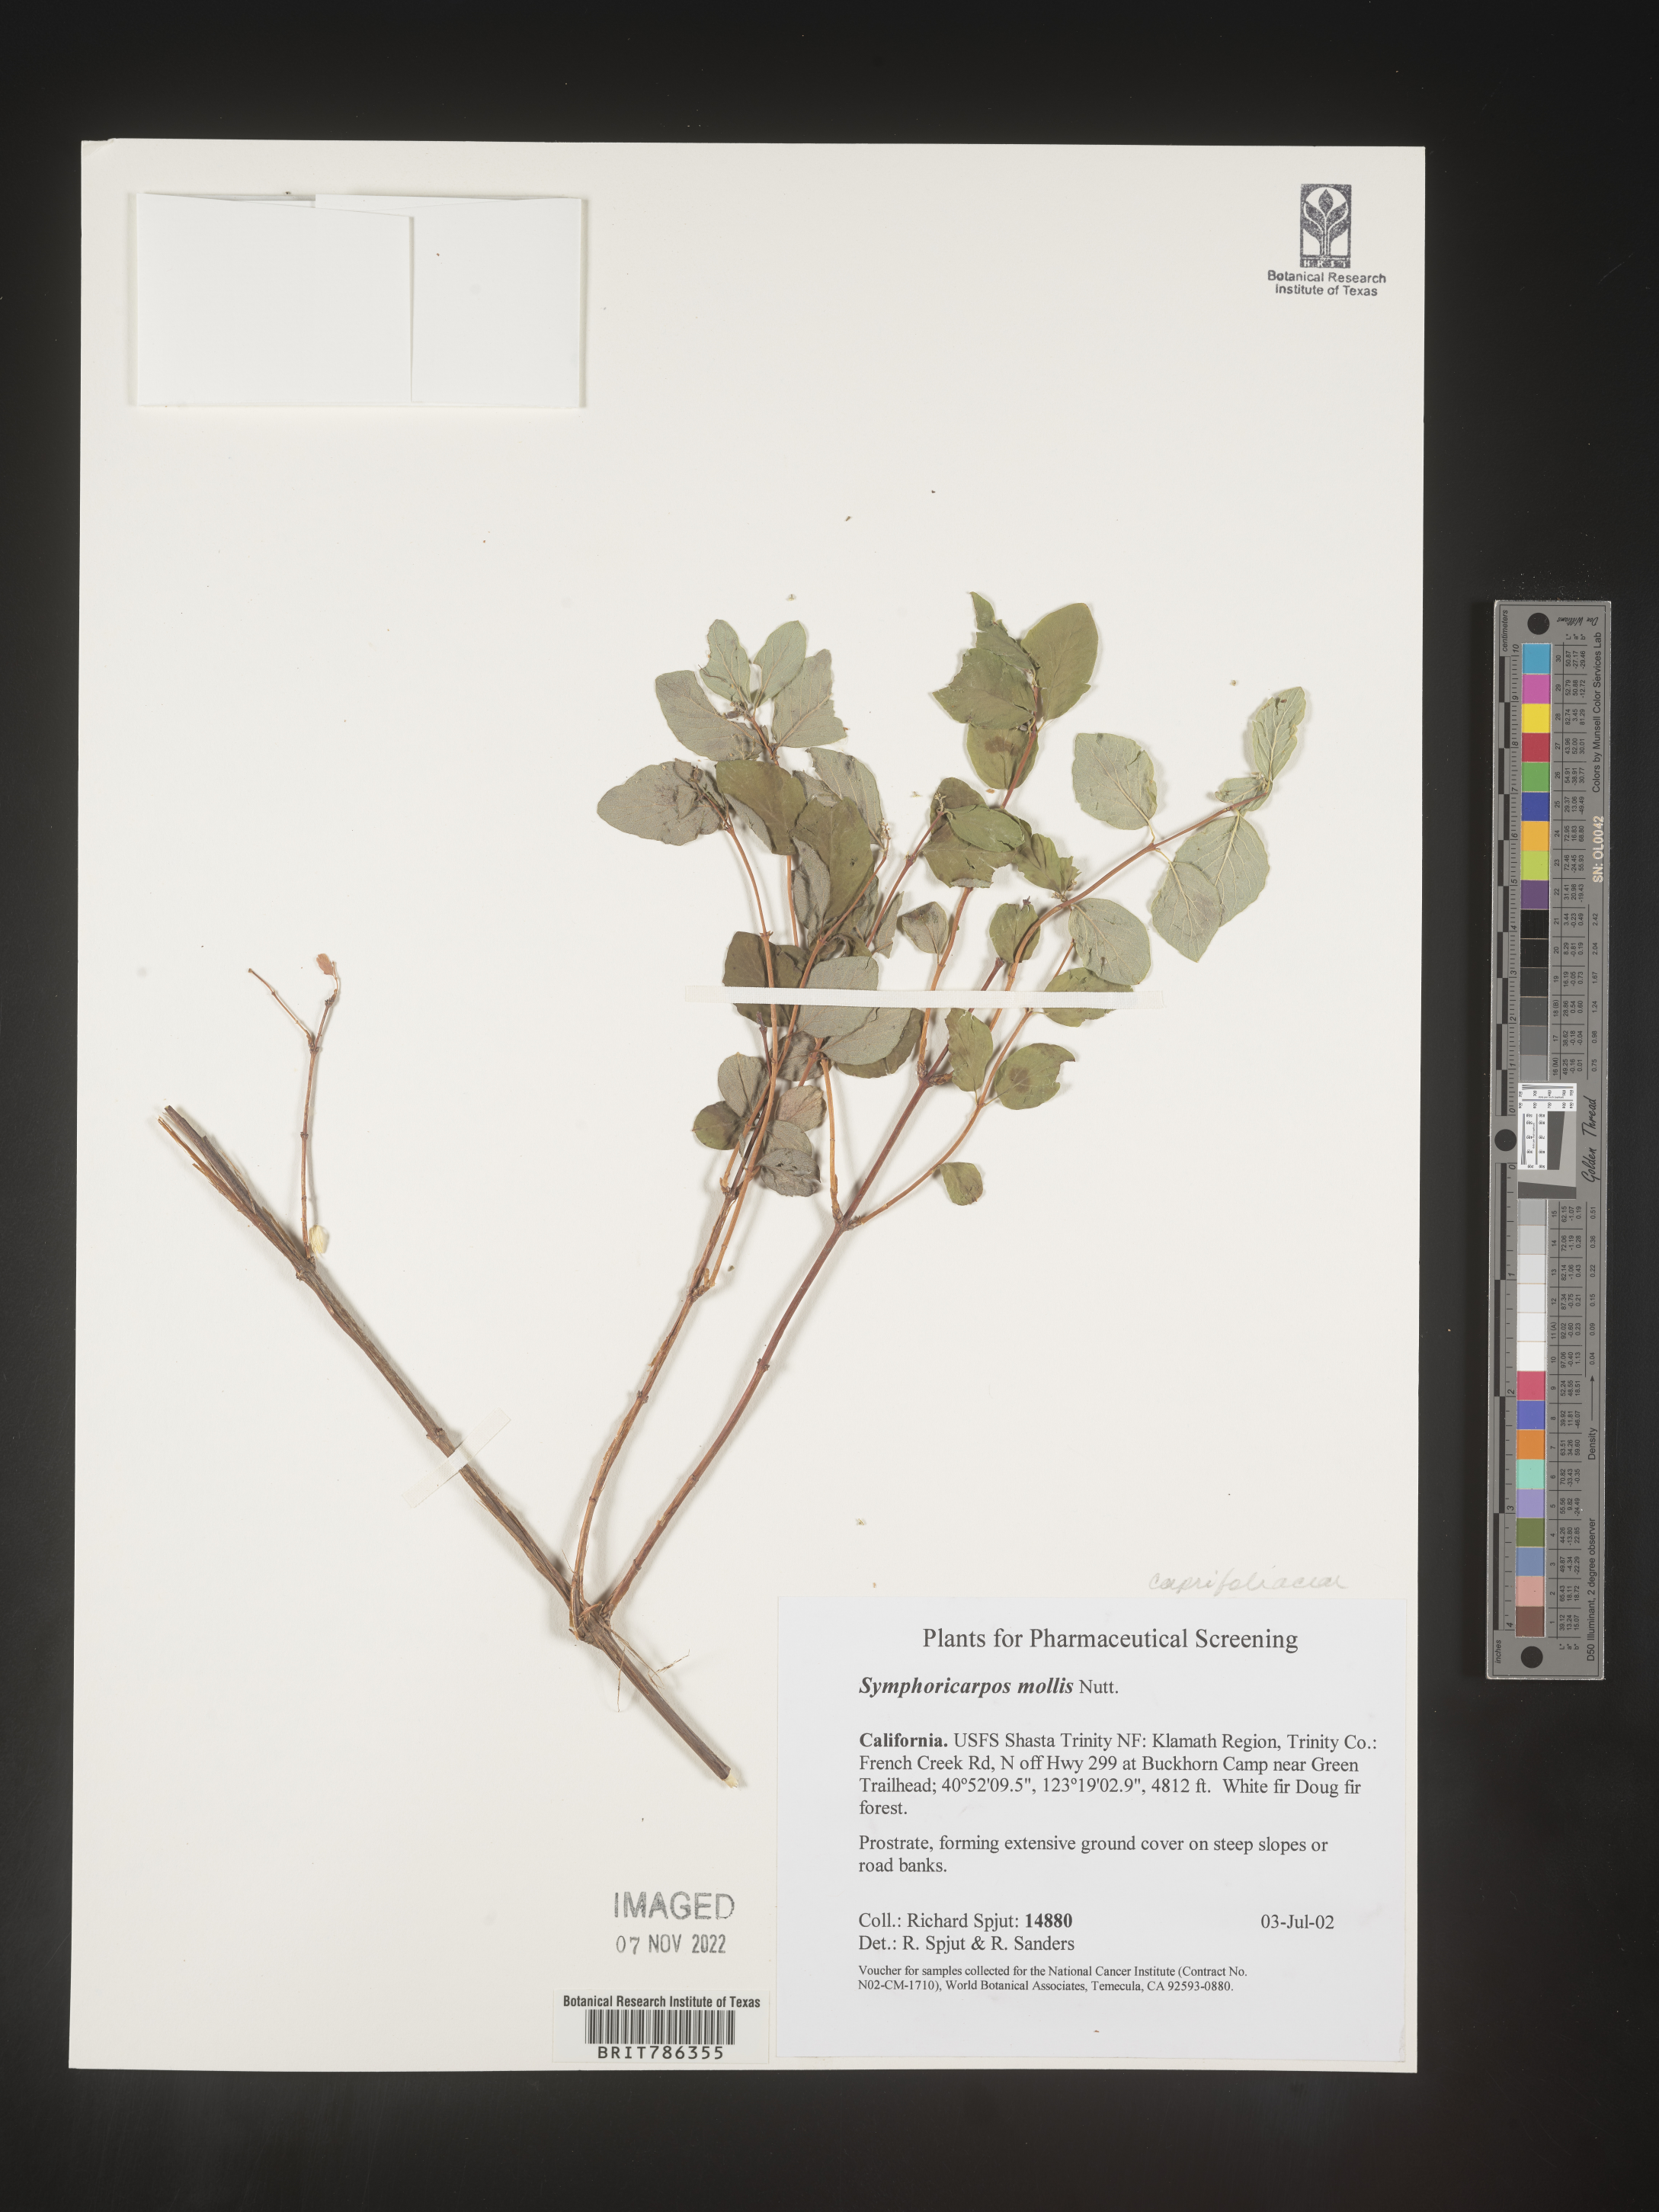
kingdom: Plantae
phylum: Tracheophyta
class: Magnoliopsida
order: Dipsacales
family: Caprifoliaceae
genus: Symphoricarpos
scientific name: Symphoricarpos
